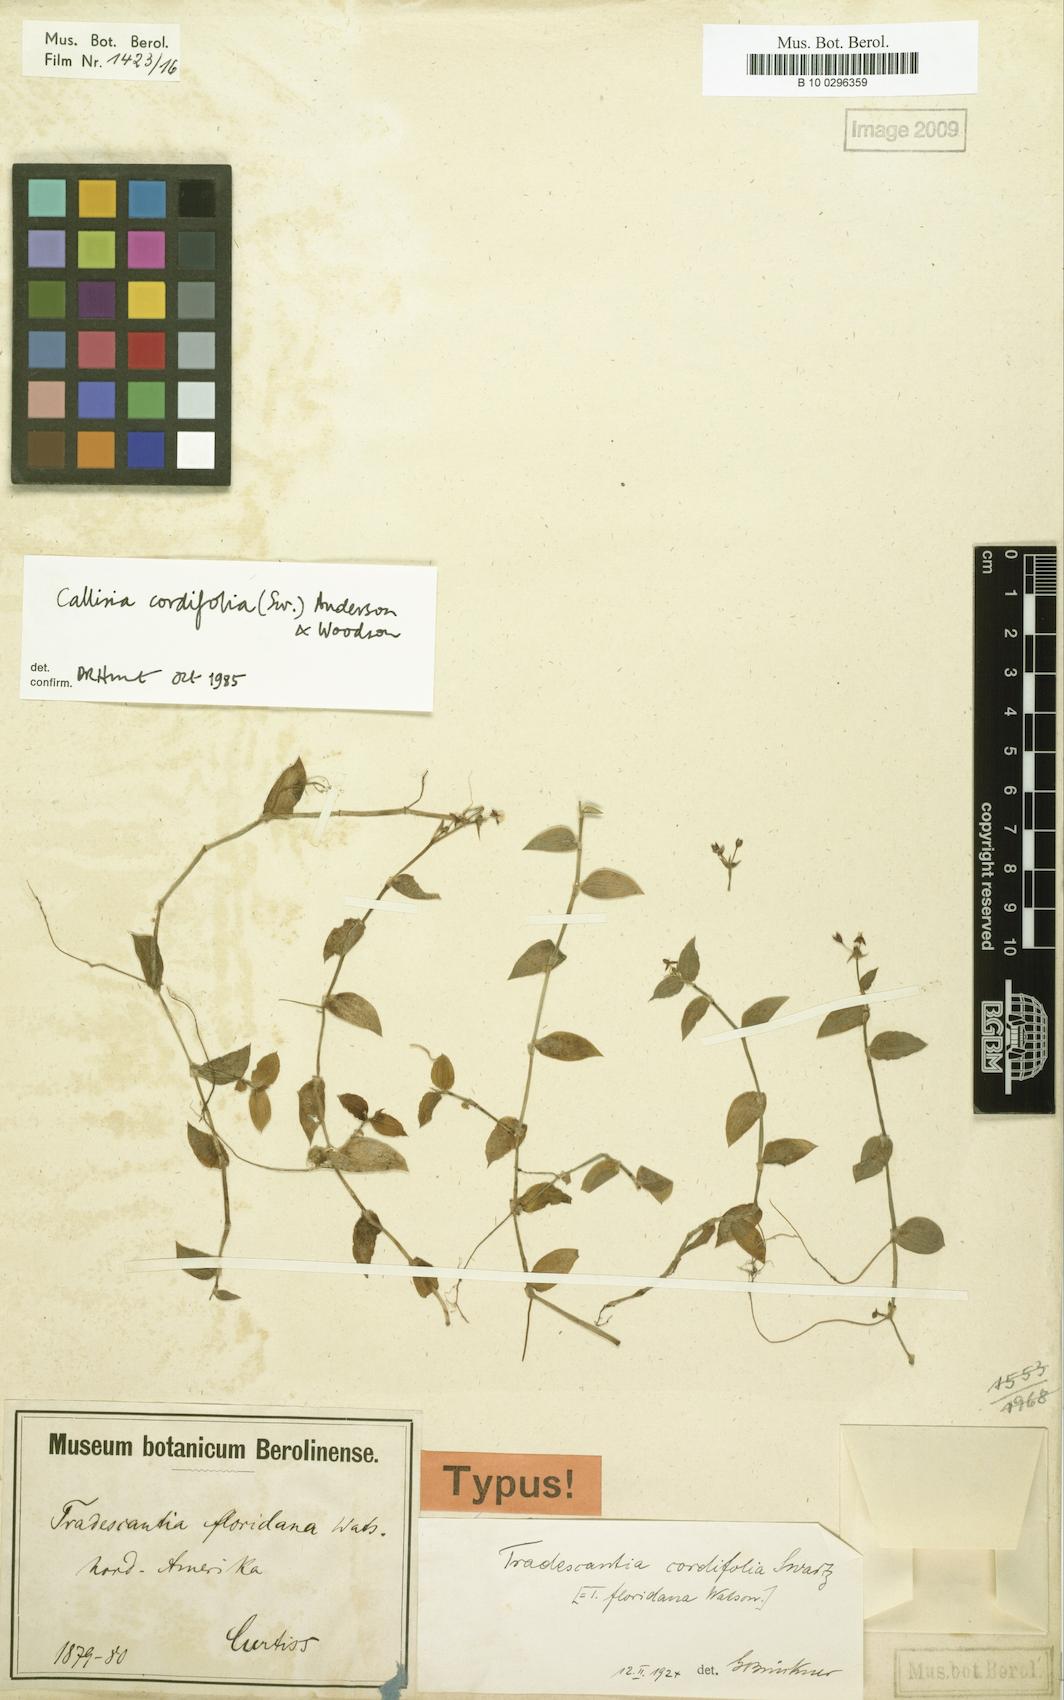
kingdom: Plantae
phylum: Tracheophyta
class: Liliopsida
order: Commelinales
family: Commelinaceae
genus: Callisia
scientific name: Callisia cordifolia
